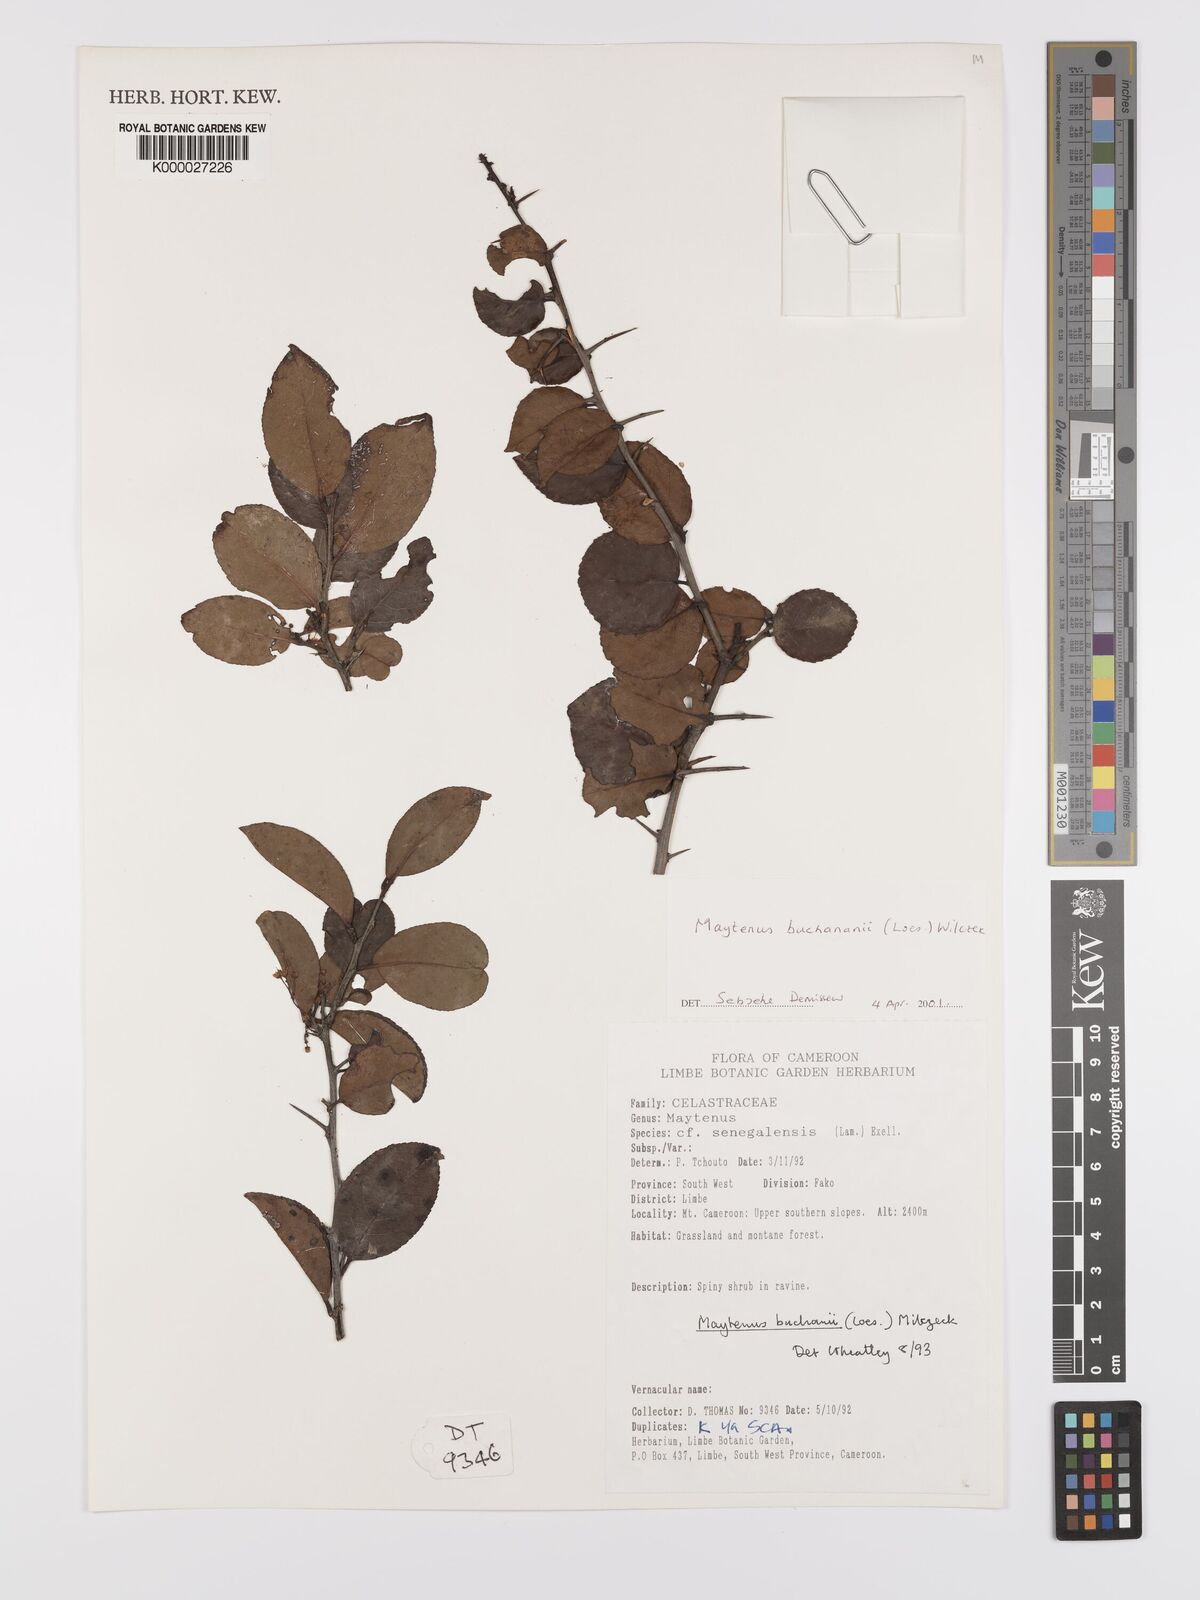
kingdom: Plantae
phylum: Tracheophyta
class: Magnoliopsida
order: Celastrales
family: Celastraceae
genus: Gymnosporia
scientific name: Gymnosporia buchananii
